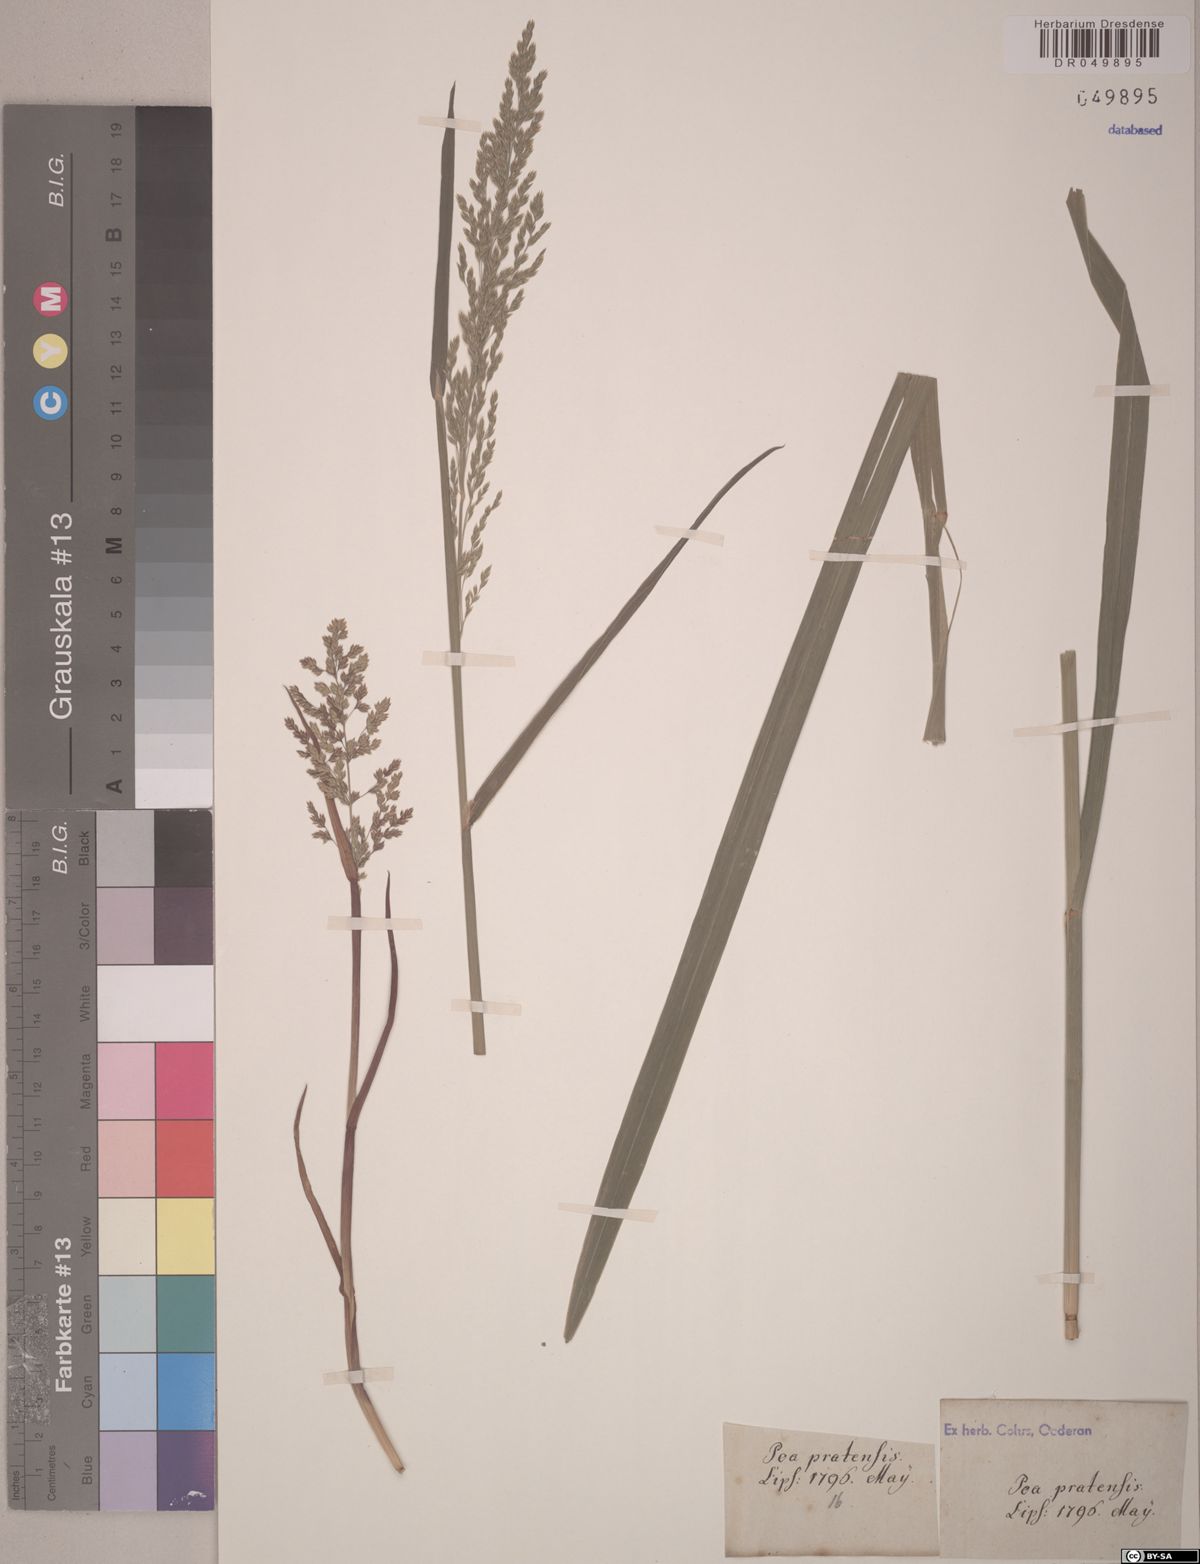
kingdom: Plantae
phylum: Tracheophyta
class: Liliopsida
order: Poales
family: Poaceae
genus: Poa
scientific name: Poa pratensis
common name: Kentucky bluegrass
